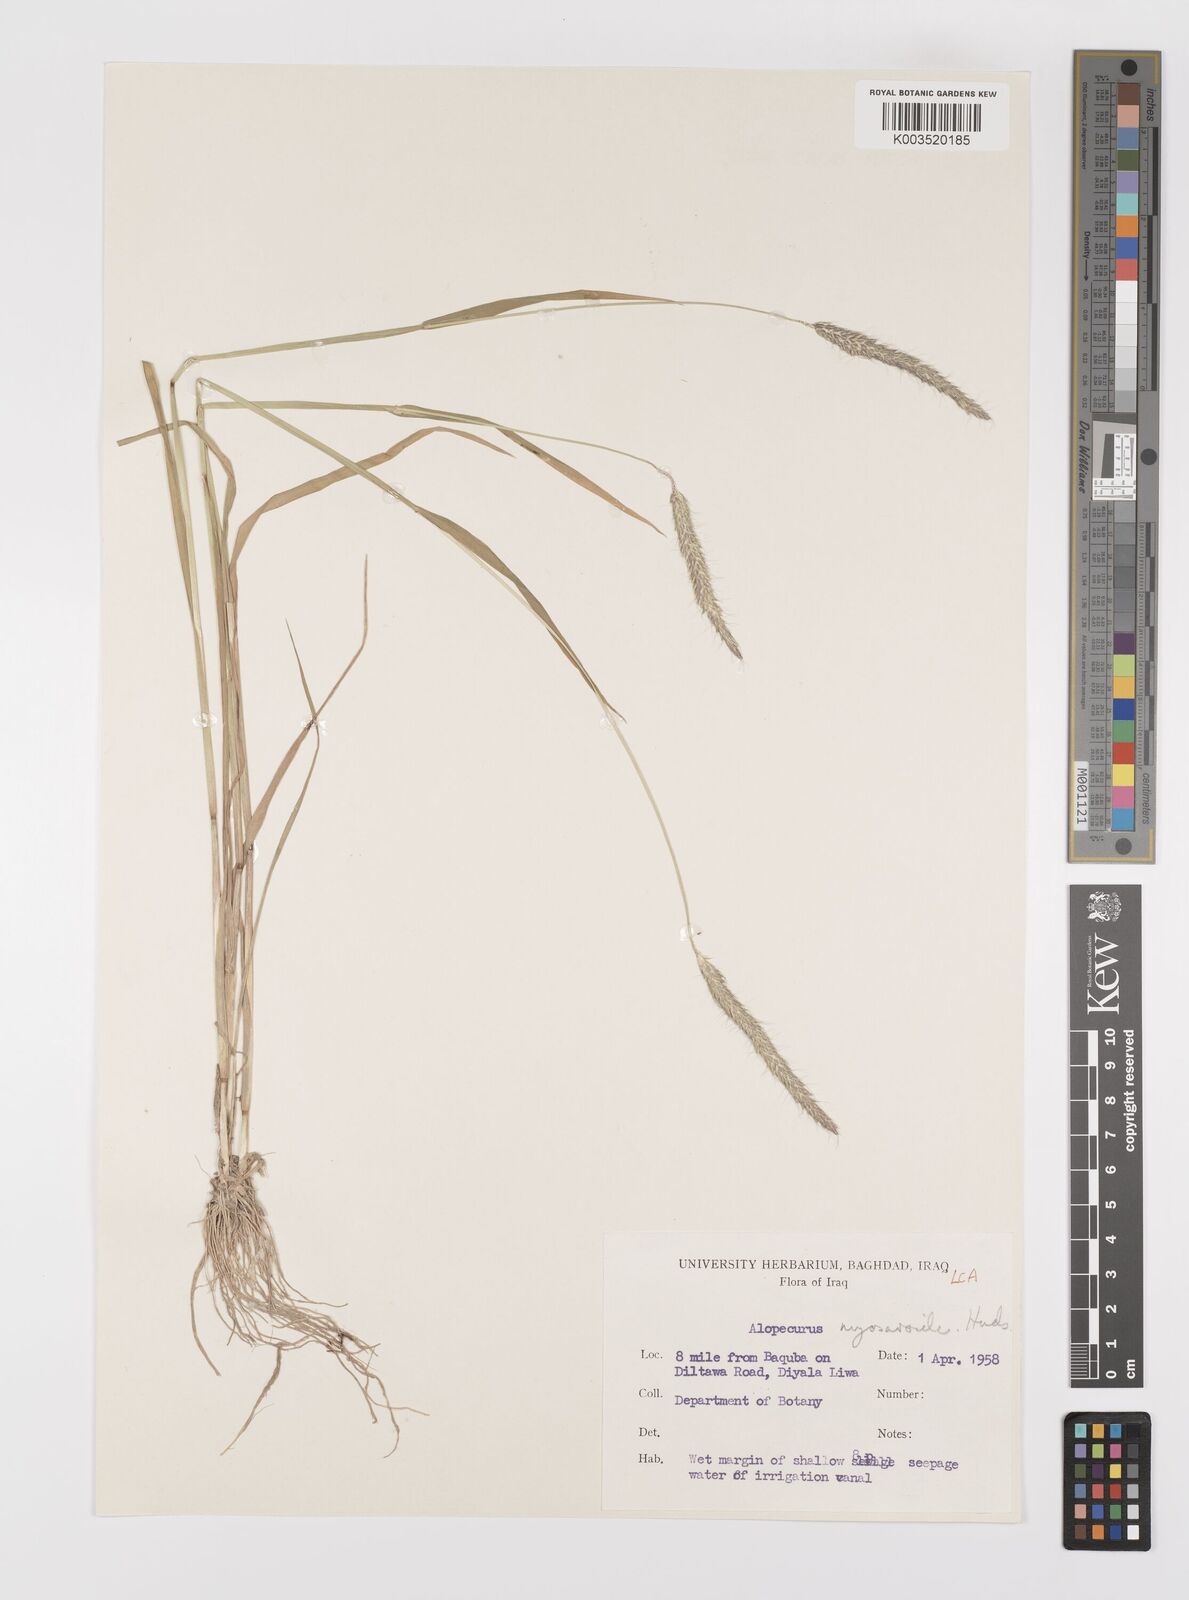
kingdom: Plantae
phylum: Tracheophyta
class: Liliopsida
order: Poales
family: Poaceae
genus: Alopecurus
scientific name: Alopecurus myosuroides
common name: Black-grass
